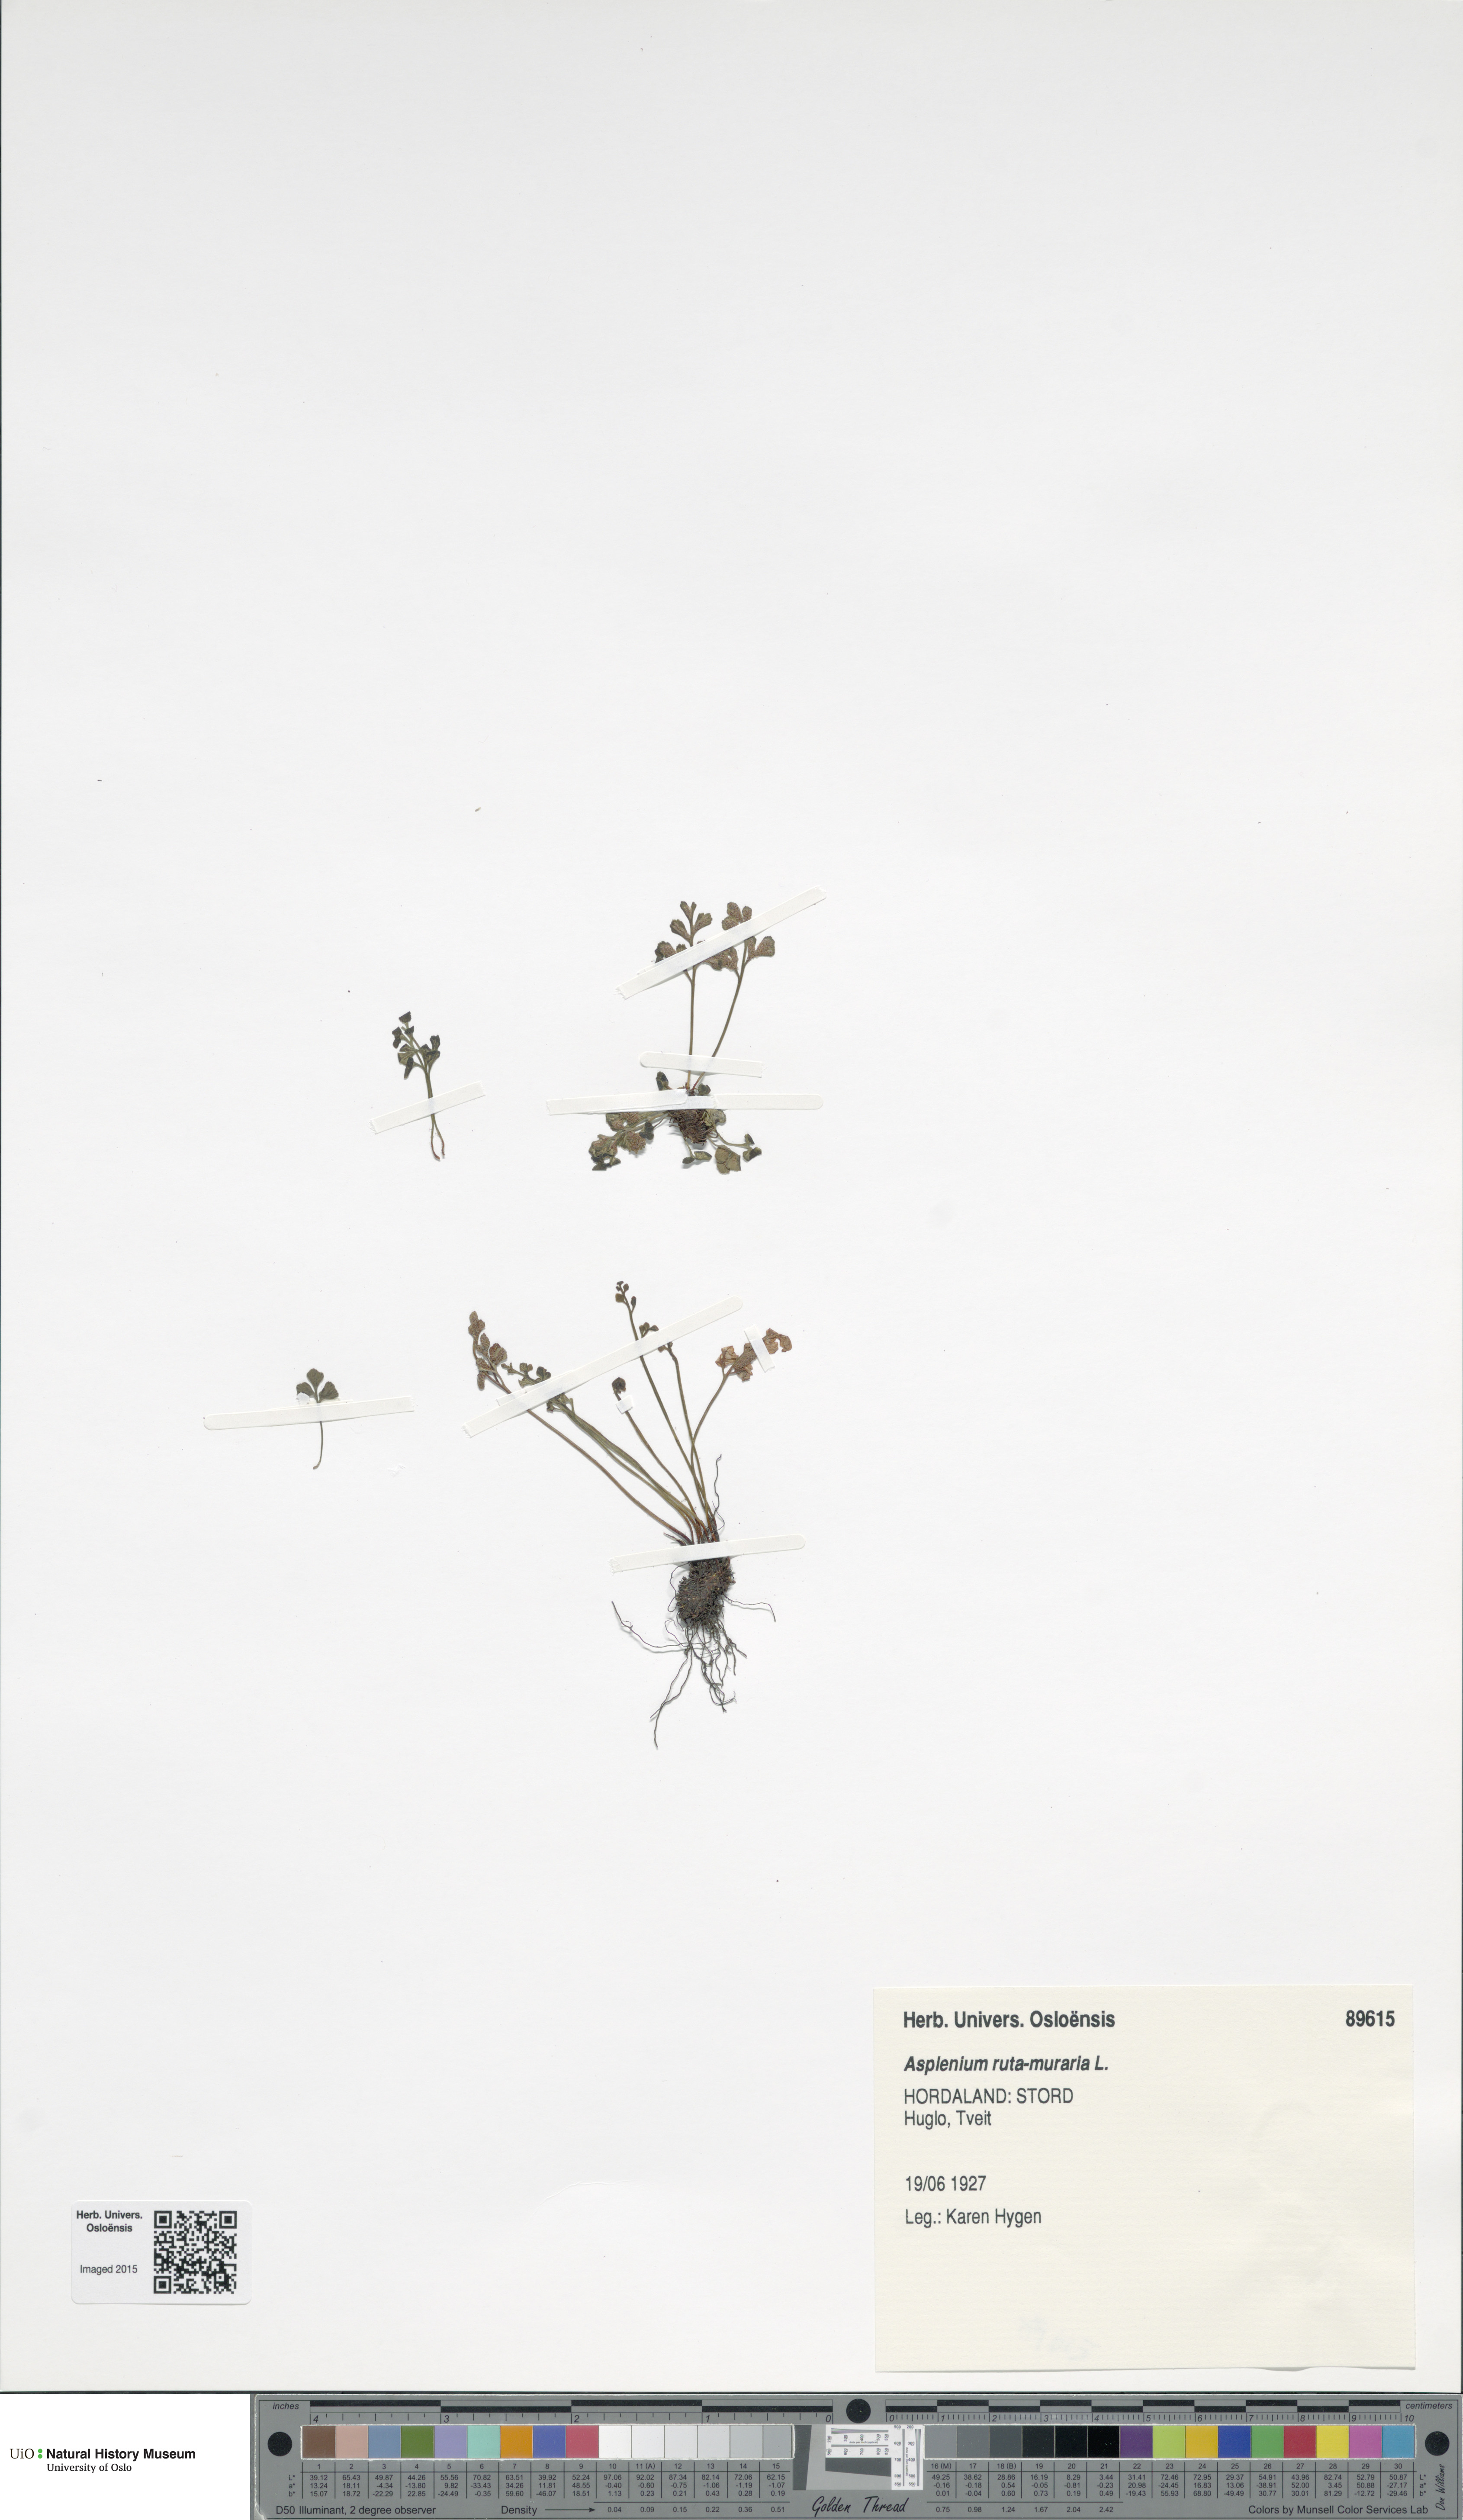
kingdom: Plantae
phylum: Tracheophyta
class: Polypodiopsida
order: Polypodiales
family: Aspleniaceae
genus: Asplenium
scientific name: Asplenium ruta-muraria
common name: Wall-rue
